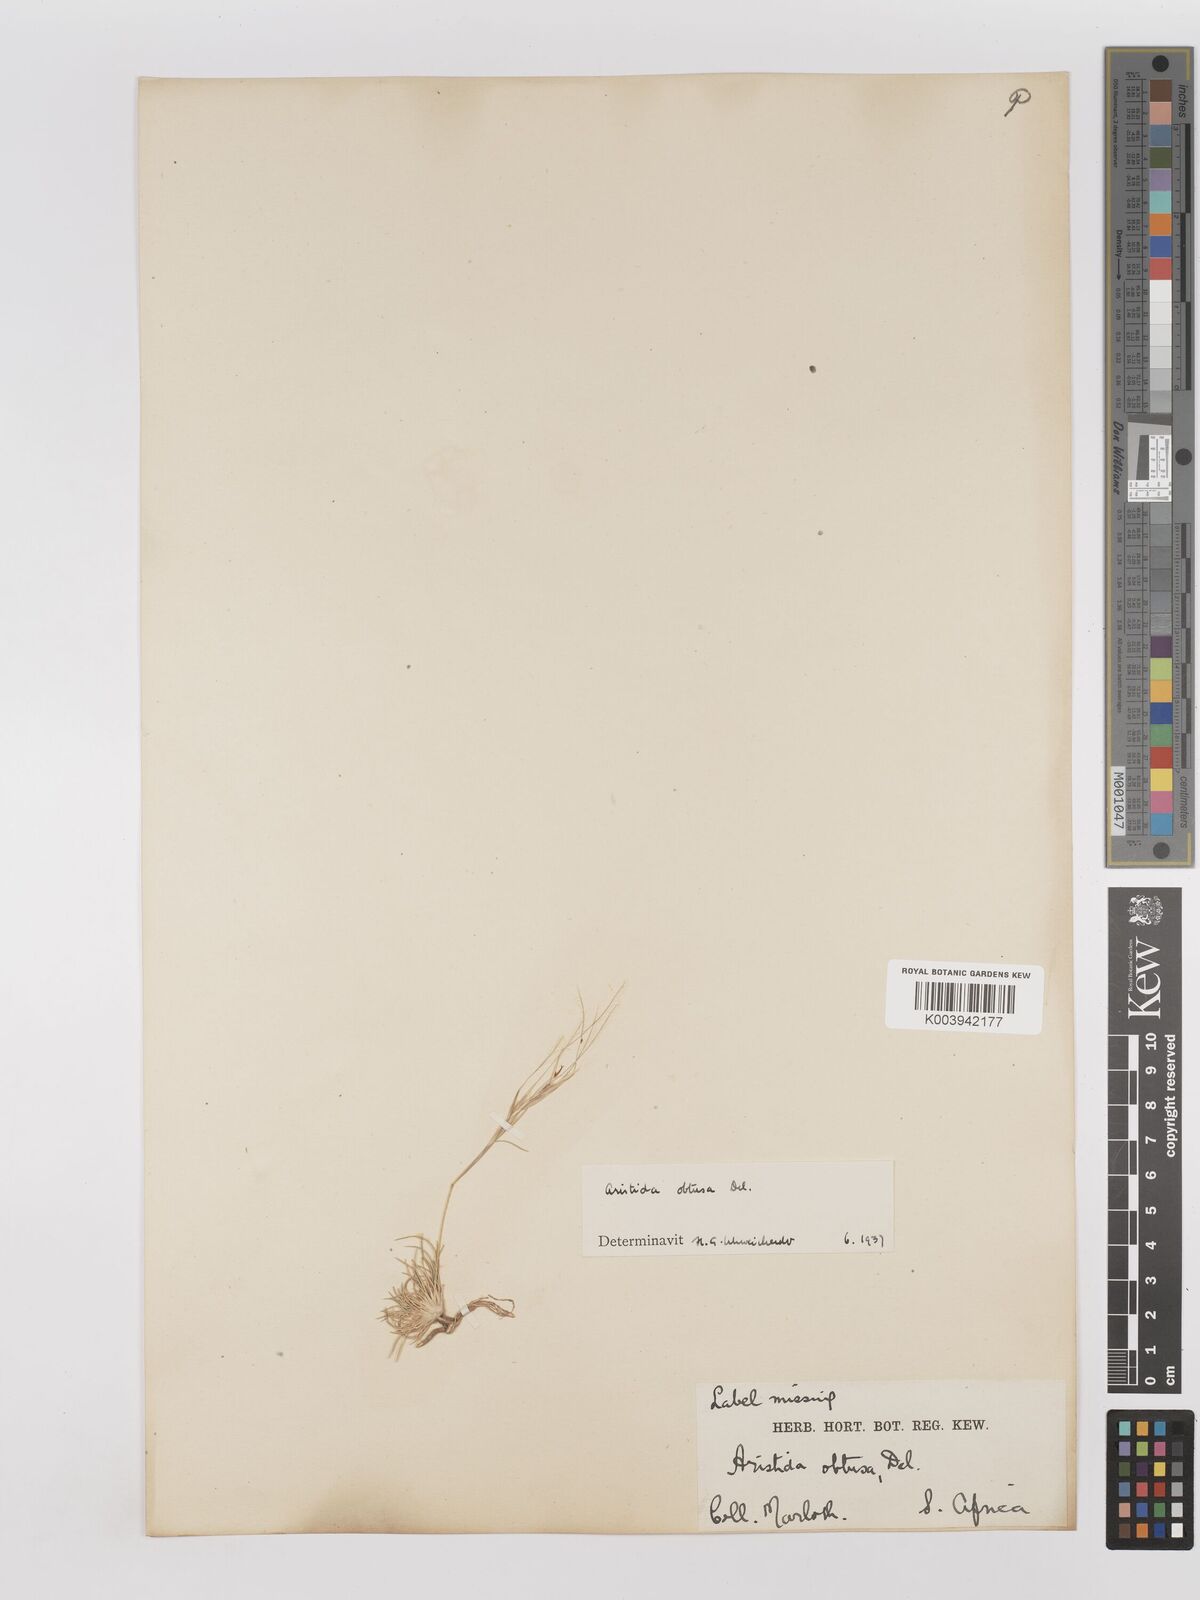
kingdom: Plantae
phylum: Tracheophyta
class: Liliopsida
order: Poales
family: Poaceae
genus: Stipagrostis
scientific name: Stipagrostis obtusa
